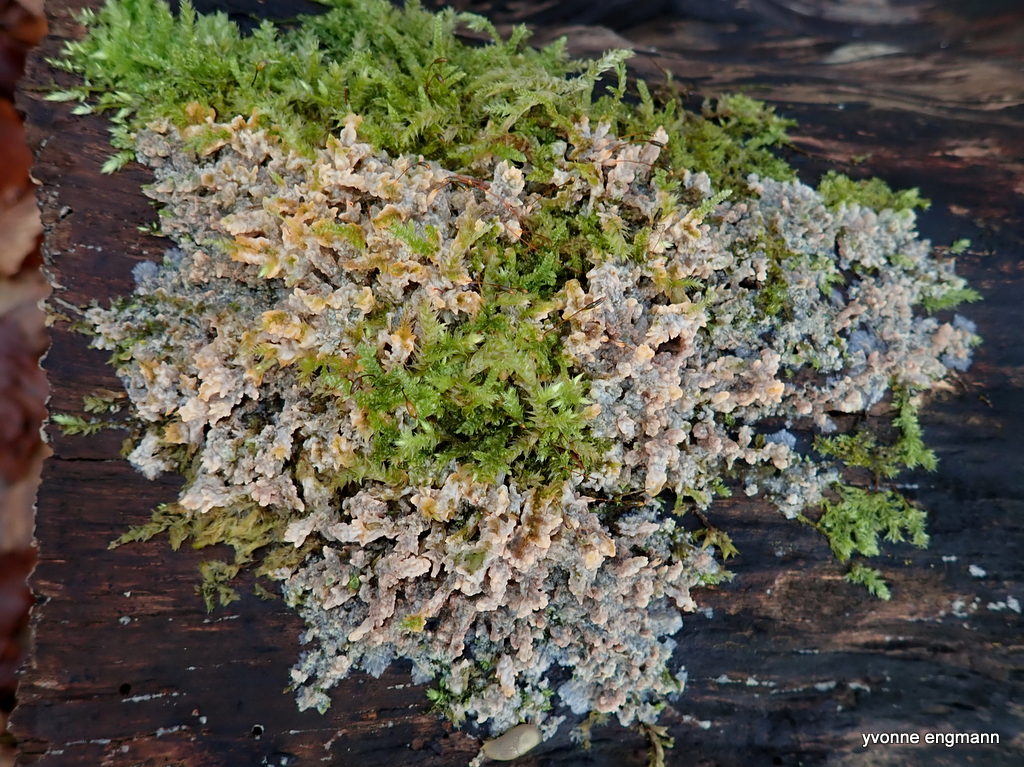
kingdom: Fungi
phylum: Basidiomycota
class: Agaricomycetes
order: Polyporales
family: Meruliaceae
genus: Phlebia
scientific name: Phlebia radiata
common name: stråle-åresvamp
